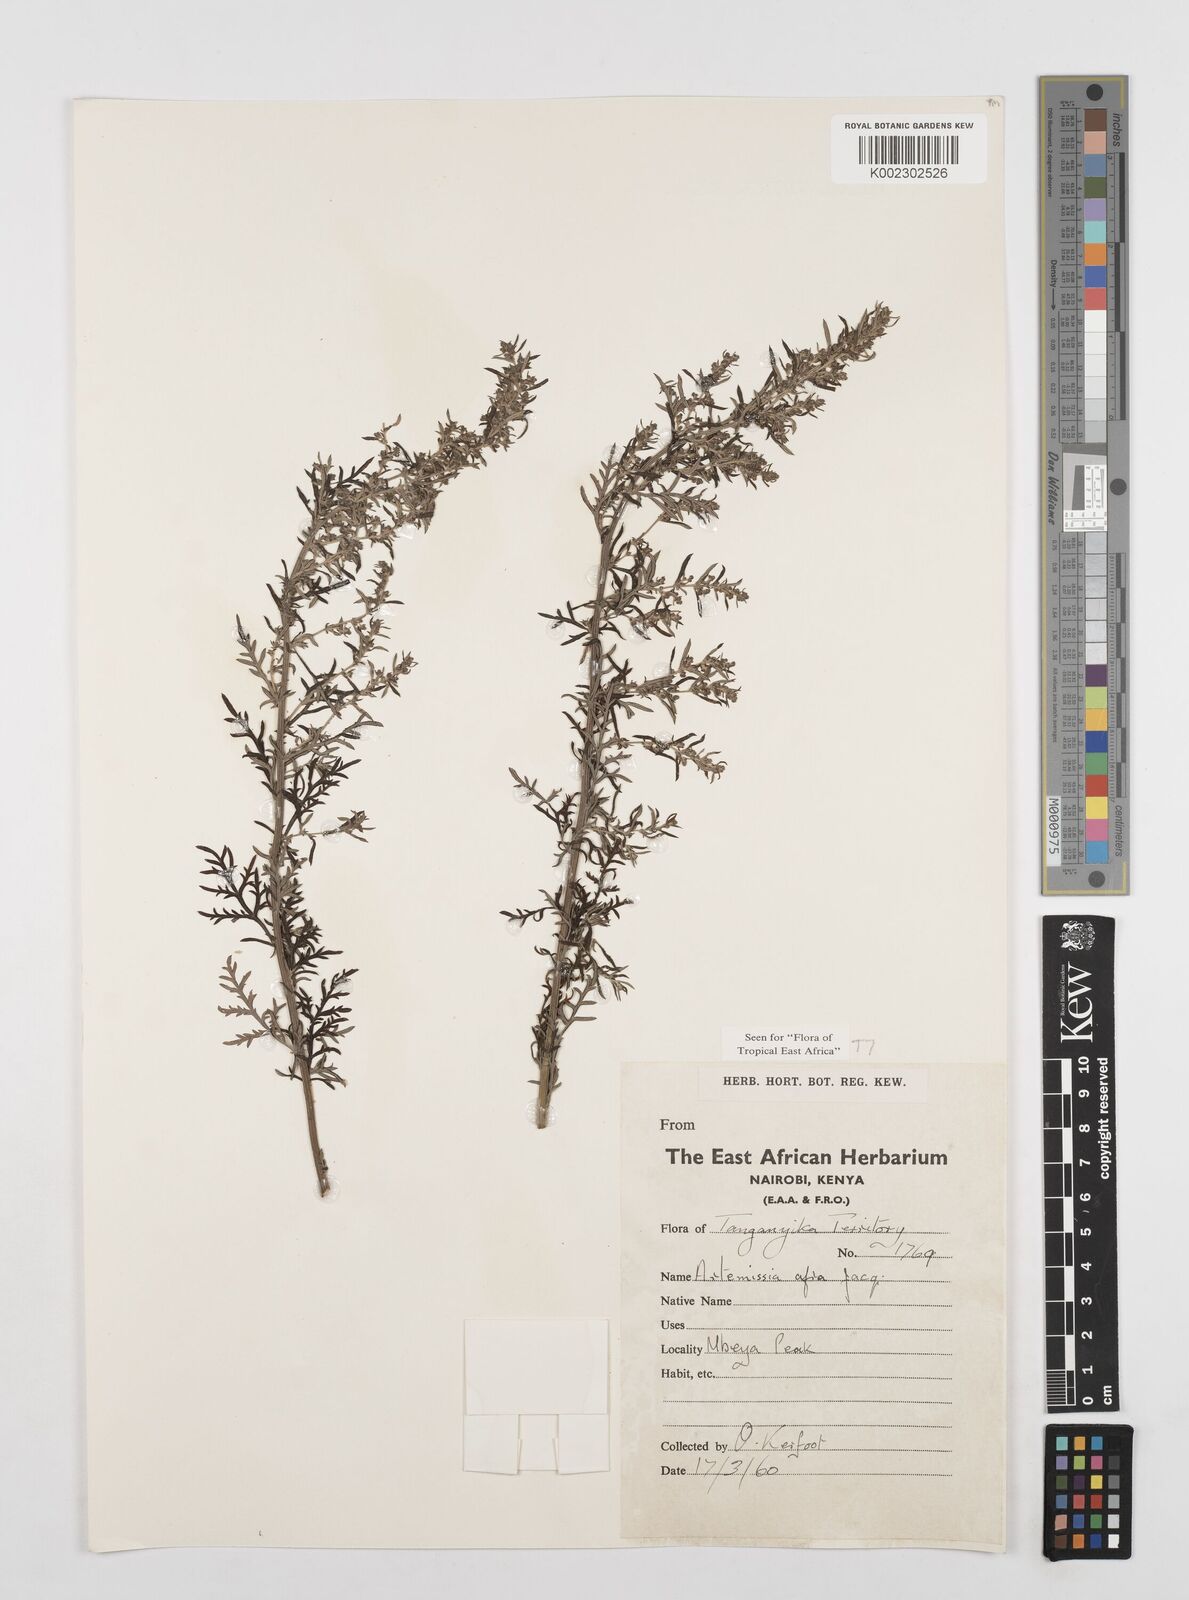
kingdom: Plantae
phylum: Tracheophyta
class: Magnoliopsida
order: Asterales
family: Asteraceae
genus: Artemisia
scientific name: Artemisia afra
